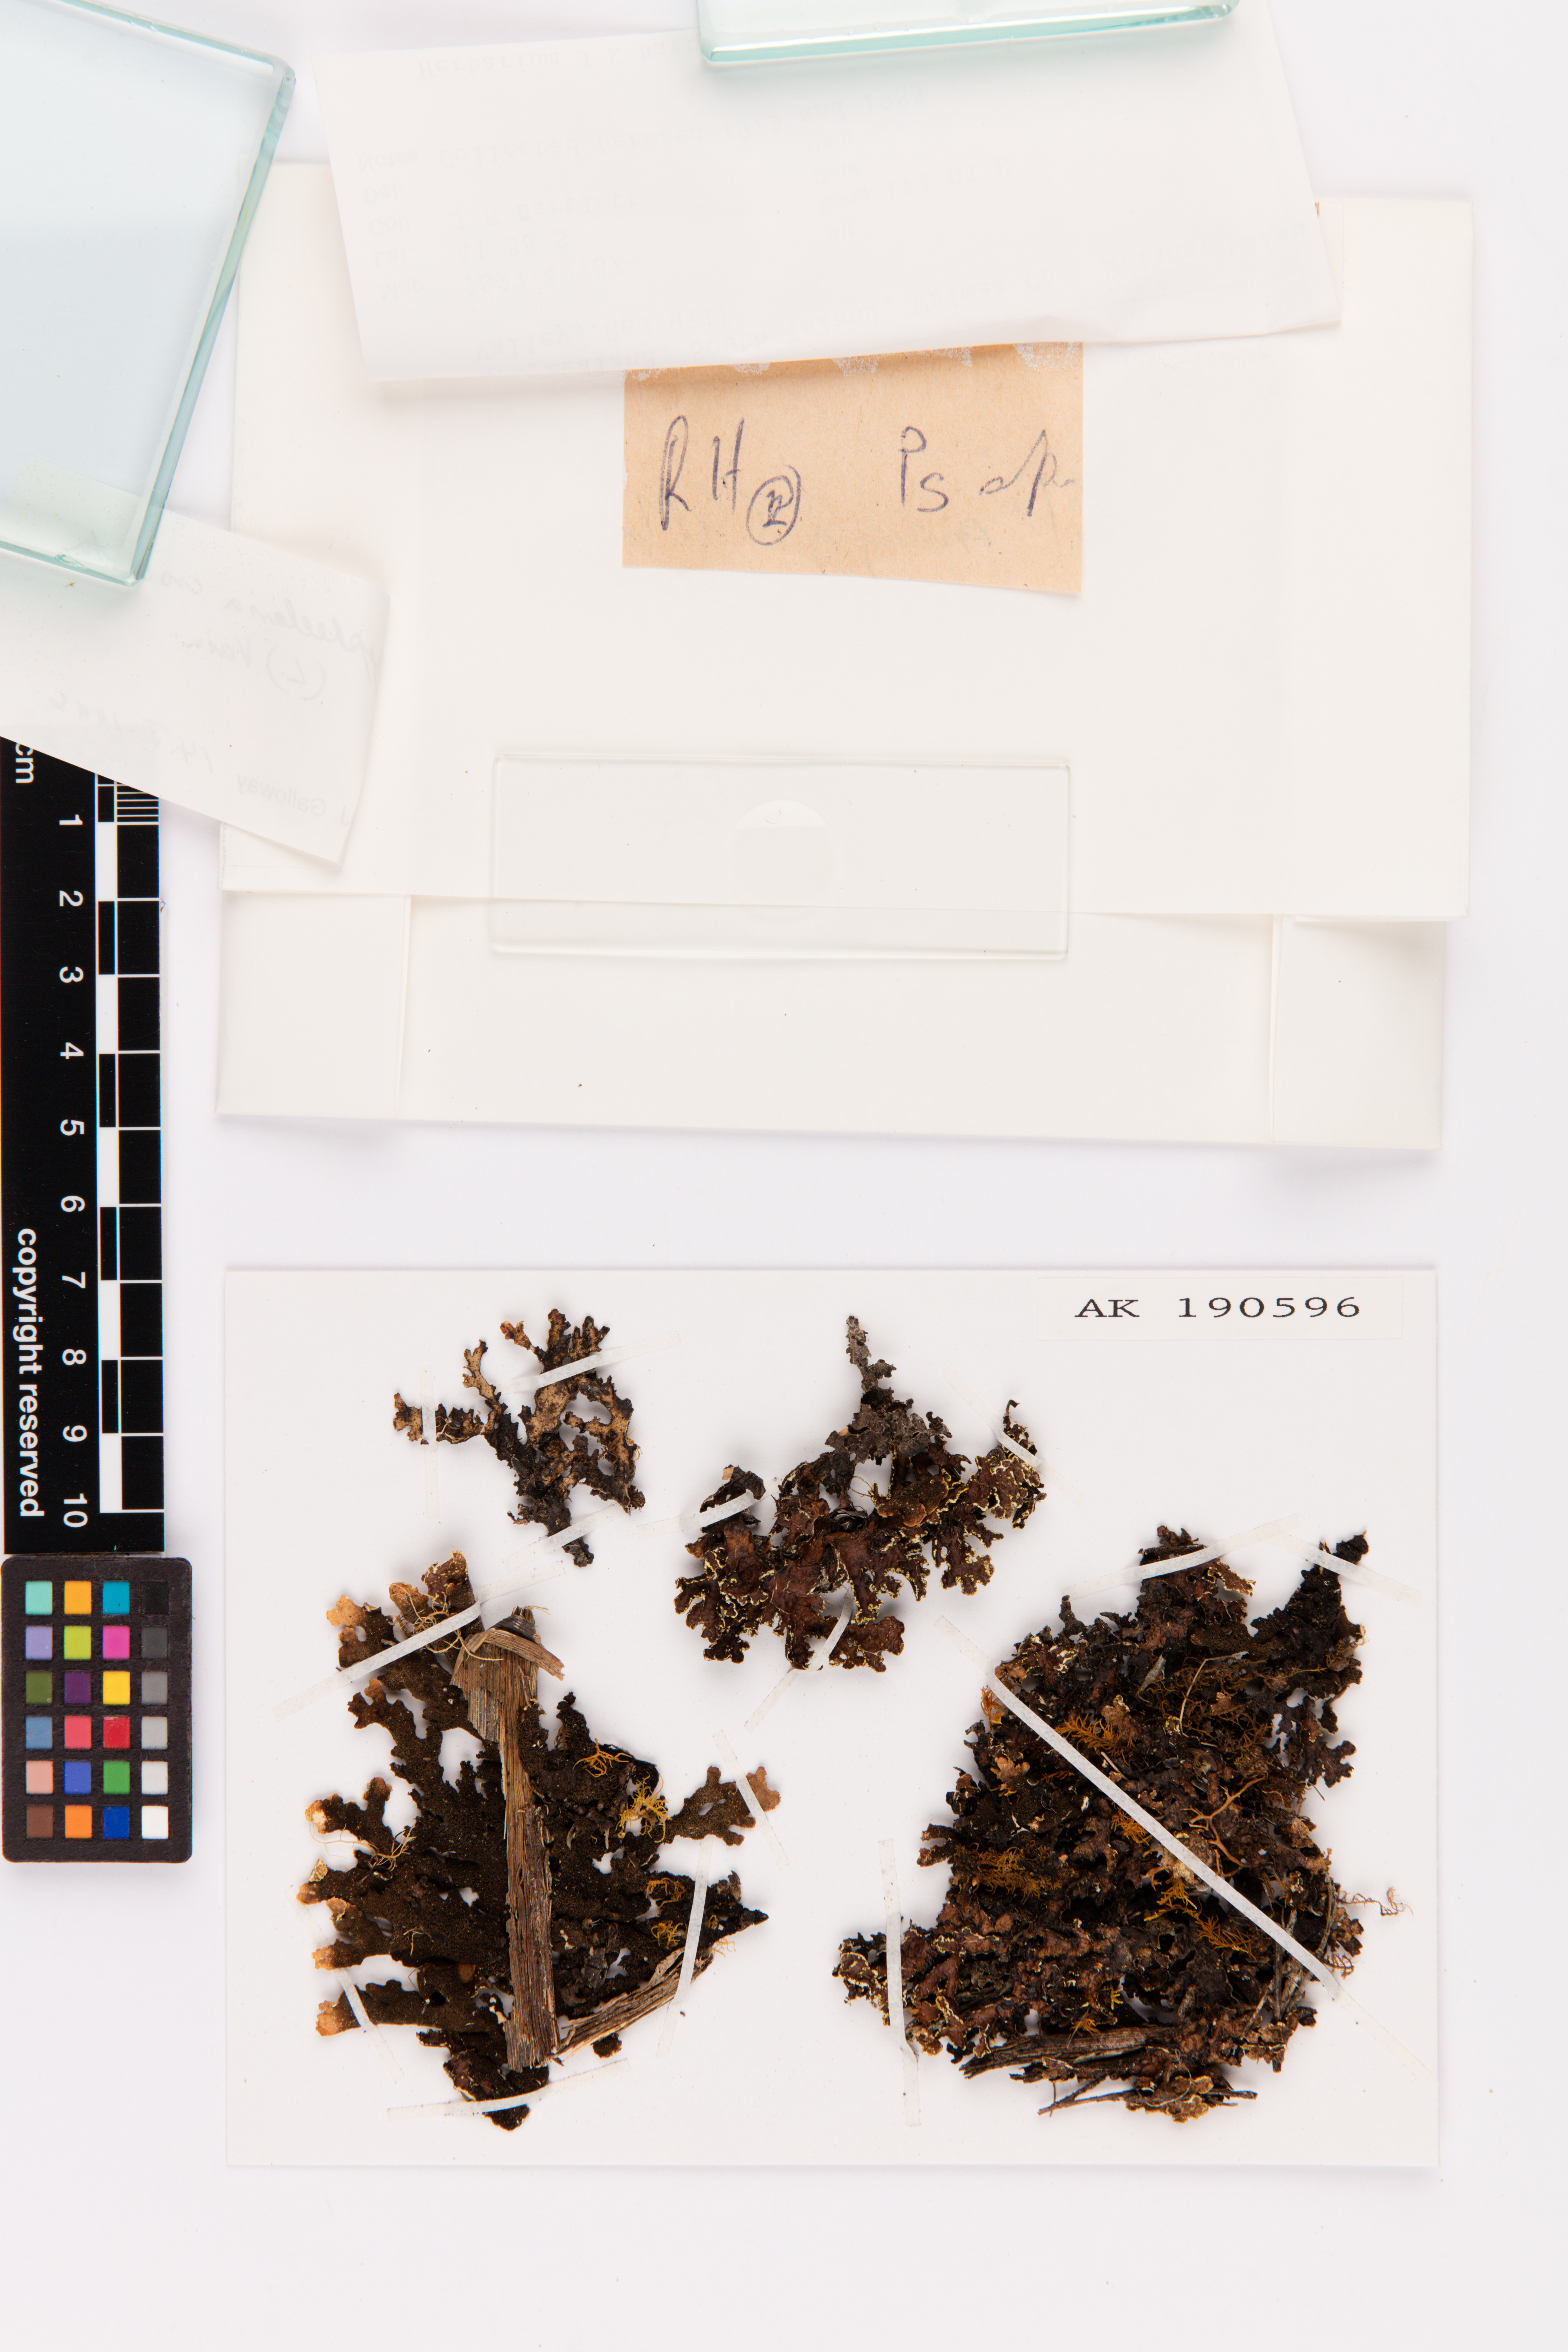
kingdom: Fungi
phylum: Ascomycota
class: Lecanoromycetes
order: Peltigerales
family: Lobariaceae
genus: Pseudocyphellaria
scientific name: Pseudocyphellaria crocata
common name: Golden specklebelly
